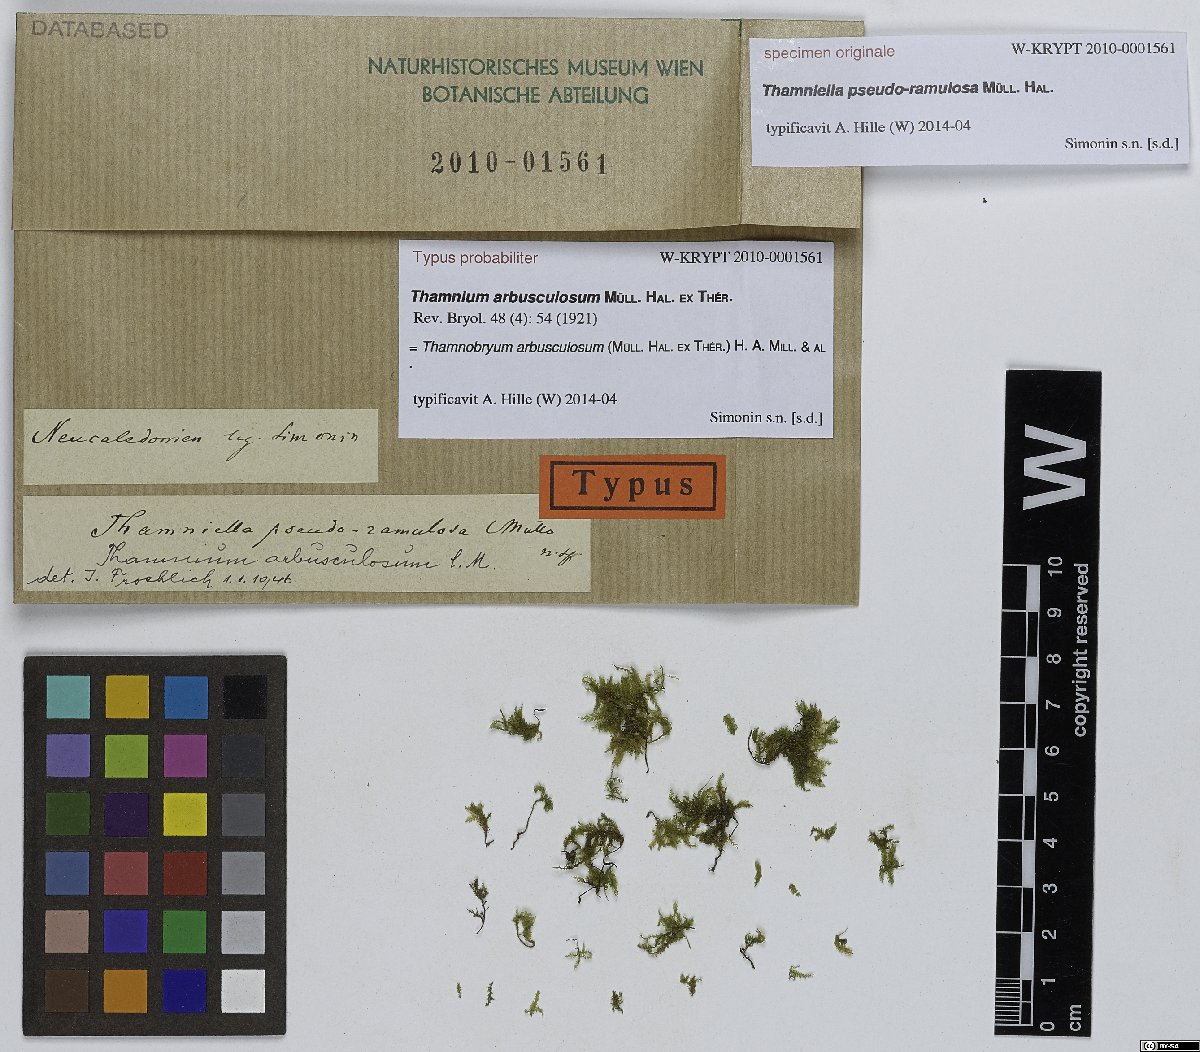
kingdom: Plantae
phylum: Bryophyta
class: Bryopsida
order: Hypnales
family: Neckeraceae
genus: Thamnobryum
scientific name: Thamnobryum arbusculosum
